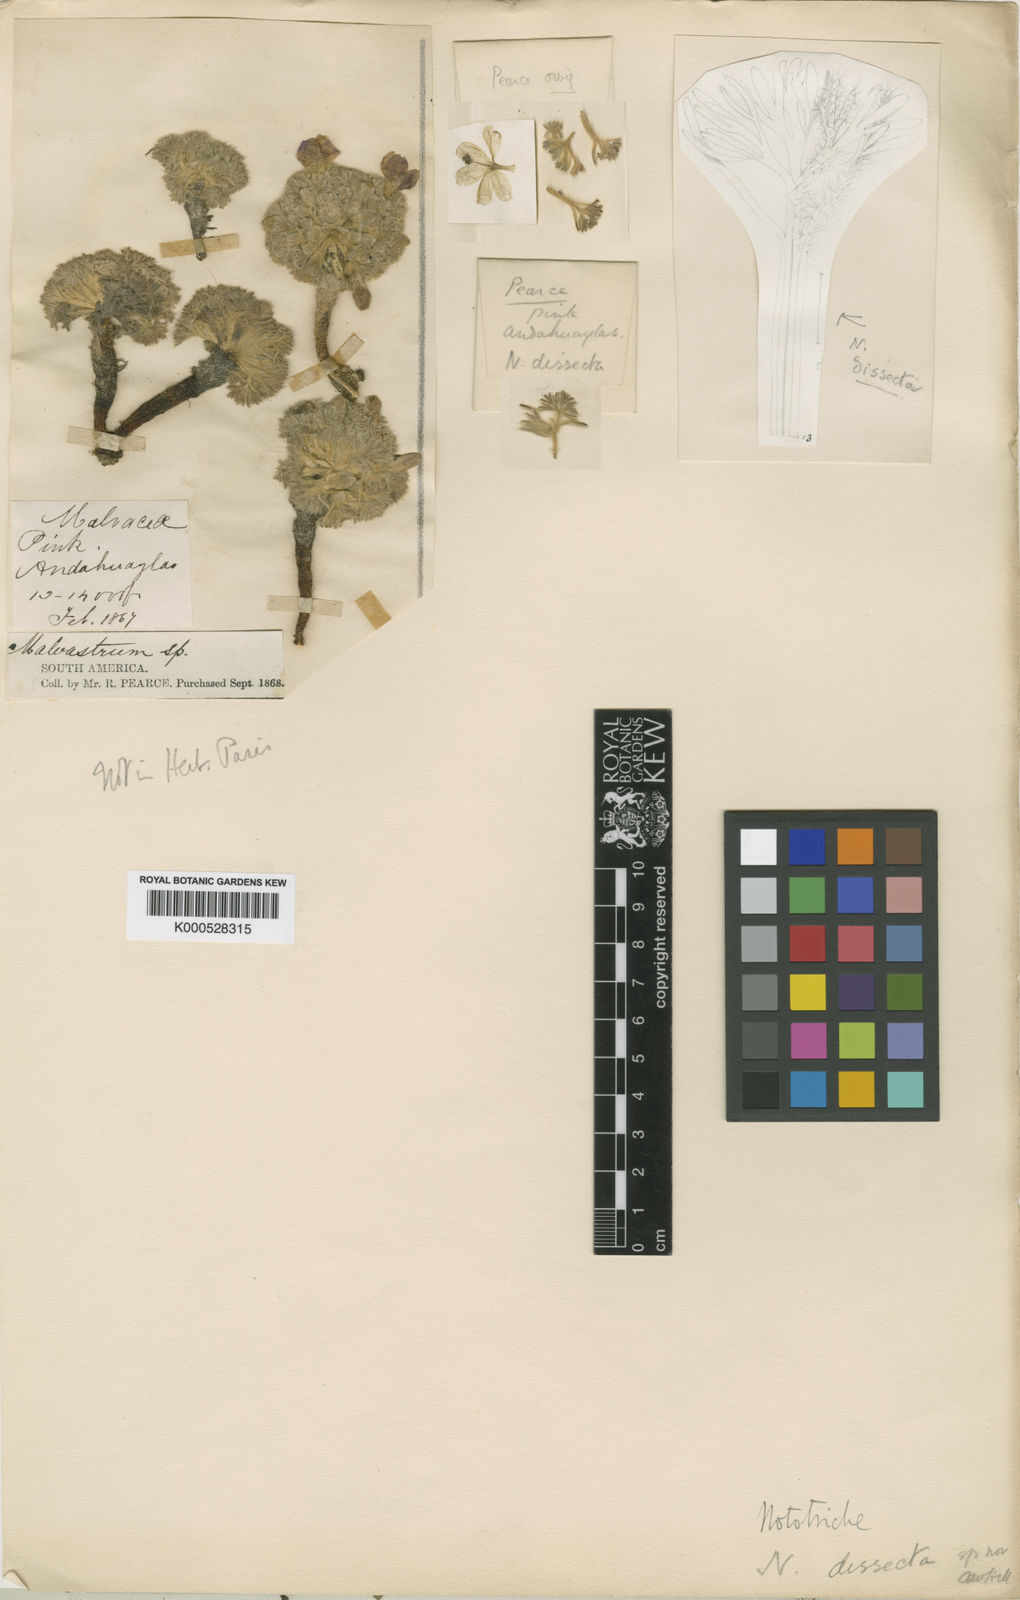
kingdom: Plantae
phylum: Tracheophyta
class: Magnoliopsida
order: Malvales
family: Malvaceae
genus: Nototriche
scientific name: Nototriche dissecta
